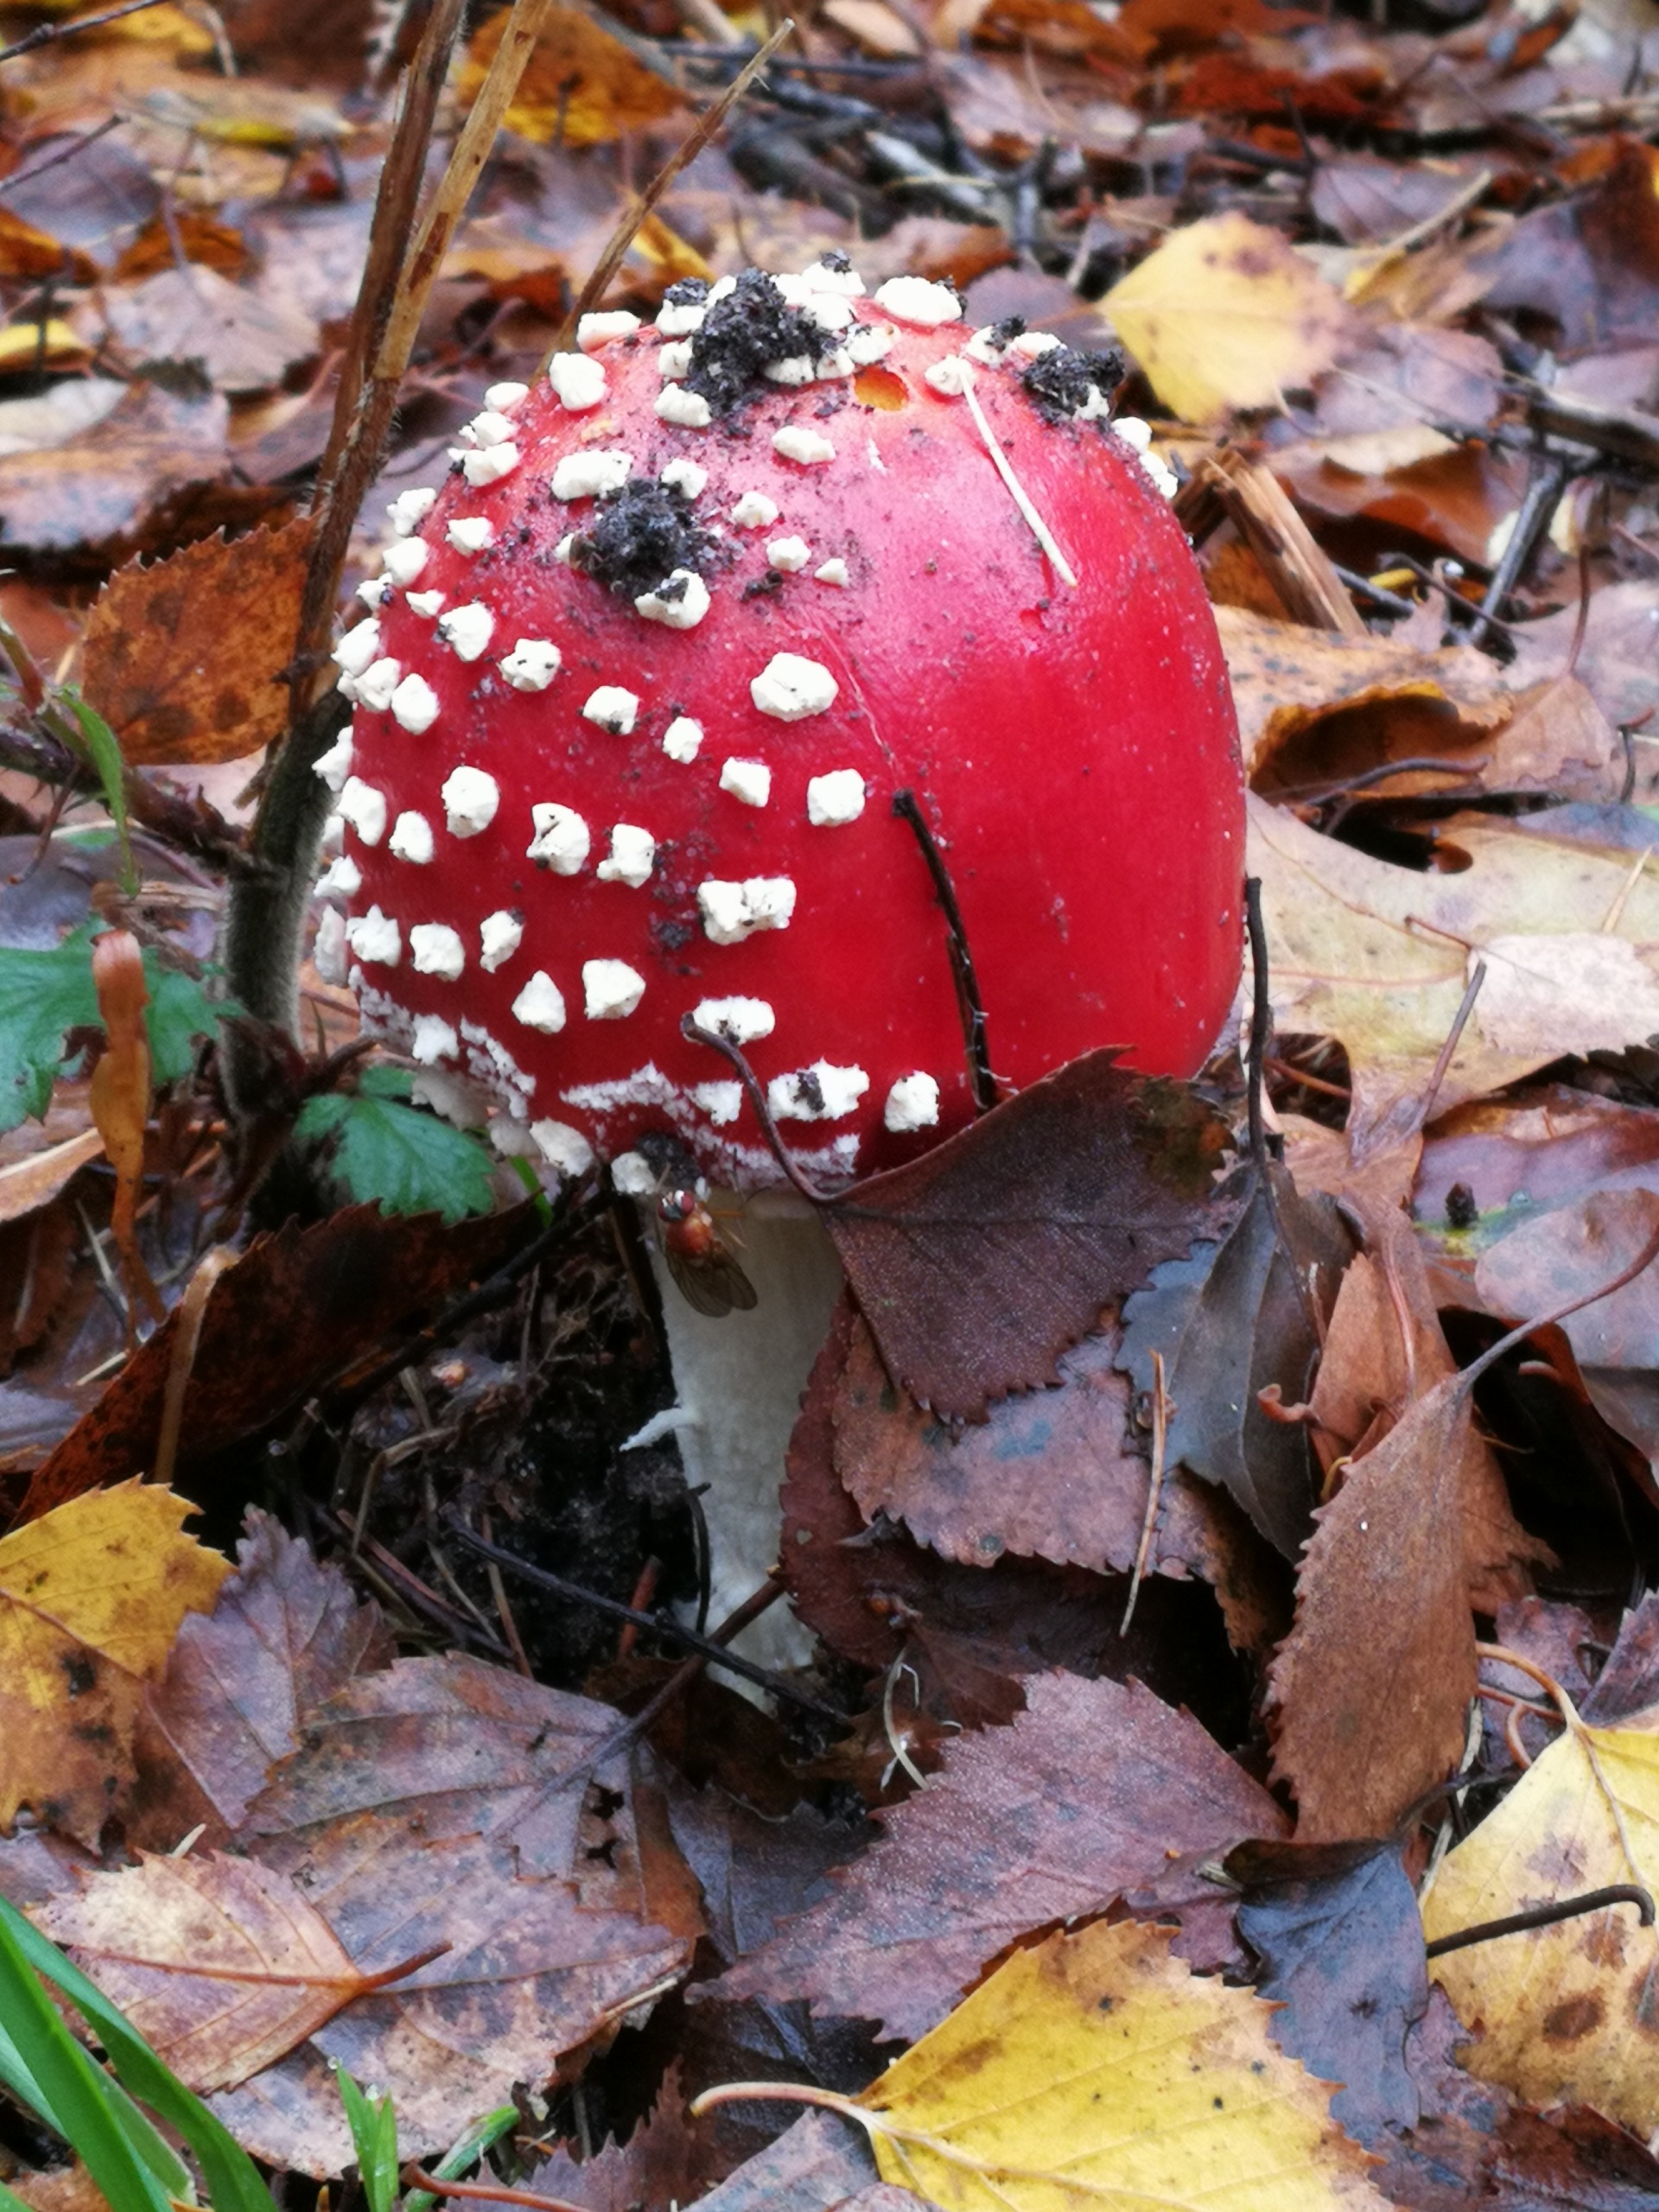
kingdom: Fungi
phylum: Basidiomycota
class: Agaricomycetes
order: Agaricales
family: Amanitaceae
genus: Amanita
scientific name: Amanita muscaria
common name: Rød fluesvamp
